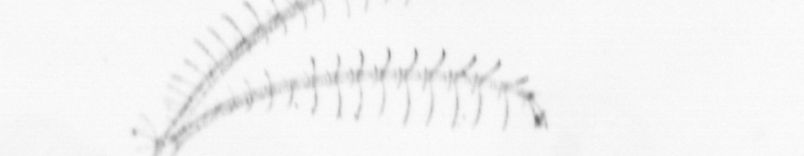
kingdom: Chromista
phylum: Ochrophyta
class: Bacillariophyceae
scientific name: Bacillariophyceae
